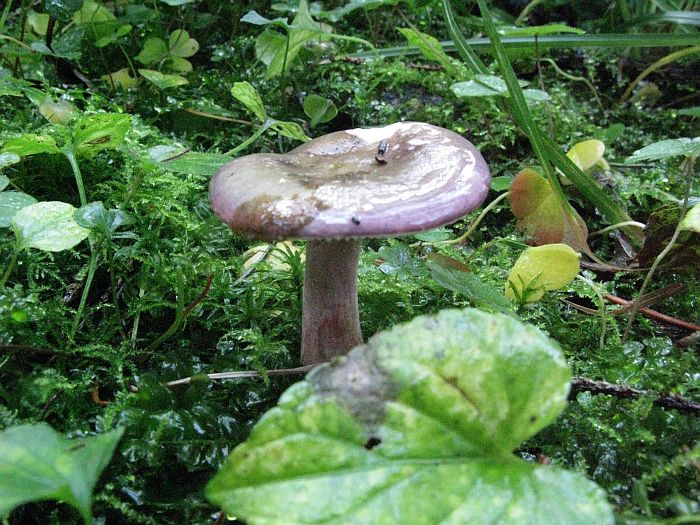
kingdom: Fungi
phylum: Basidiomycota
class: Agaricomycetes
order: Russulales
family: Russulaceae
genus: Russula
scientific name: Russula queletii
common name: Quélets skørhat
